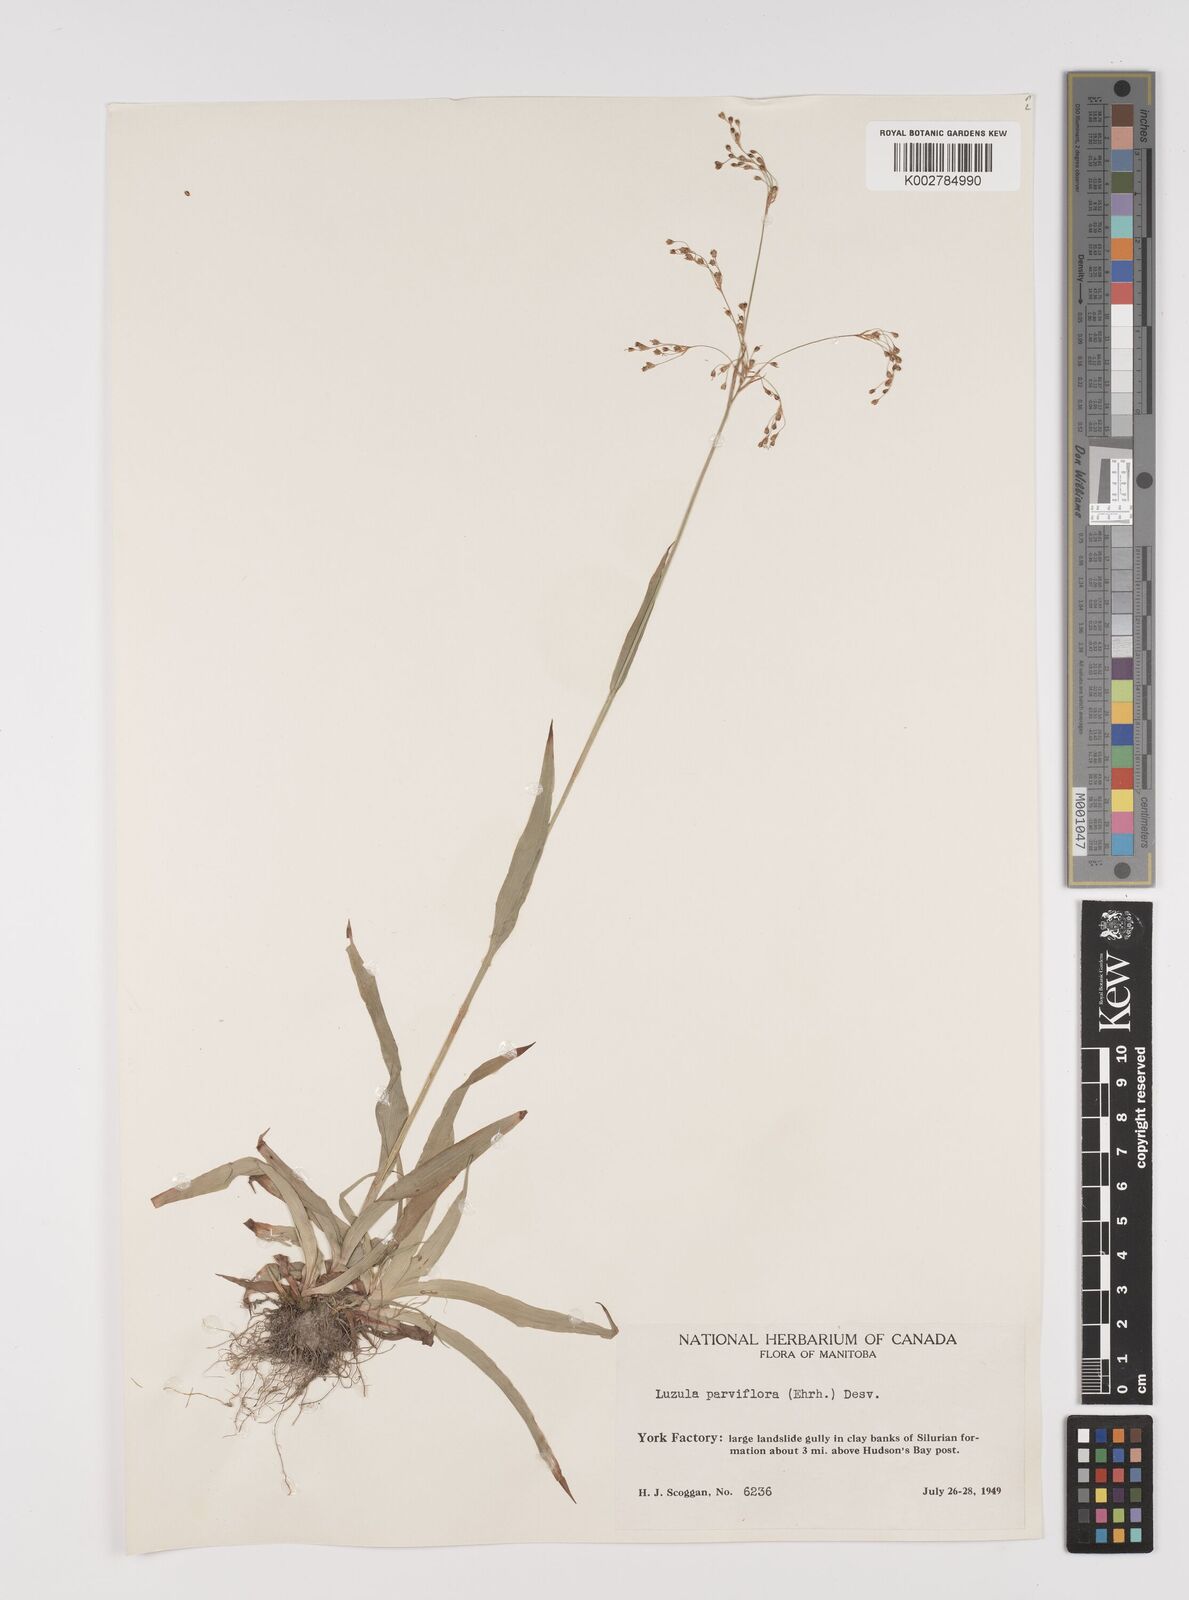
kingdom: Plantae
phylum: Tracheophyta
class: Liliopsida
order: Poales
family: Juncaceae
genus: Luzula
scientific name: Luzula parviflora
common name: Millet woodrush
